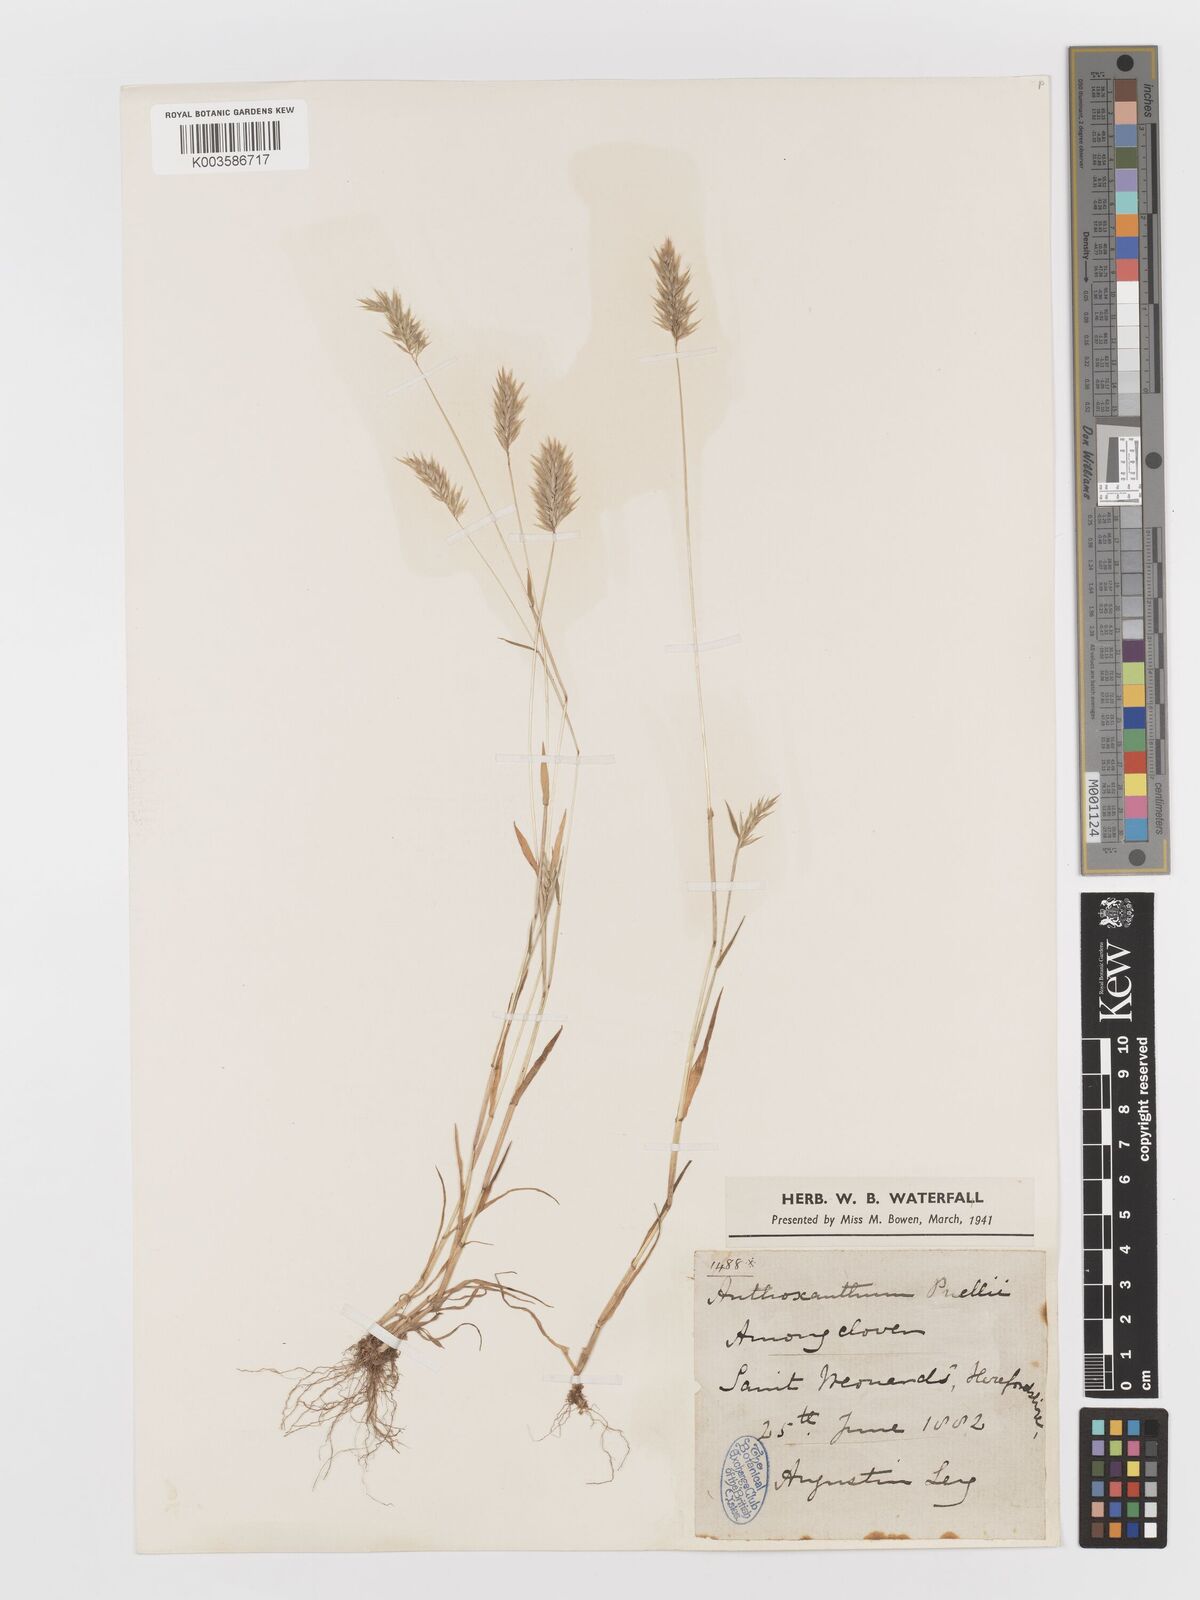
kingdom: Plantae
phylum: Tracheophyta
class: Liliopsida
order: Poales
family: Poaceae
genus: Anthoxanthum
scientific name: Anthoxanthum aristatum
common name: Annual vernal-grass
